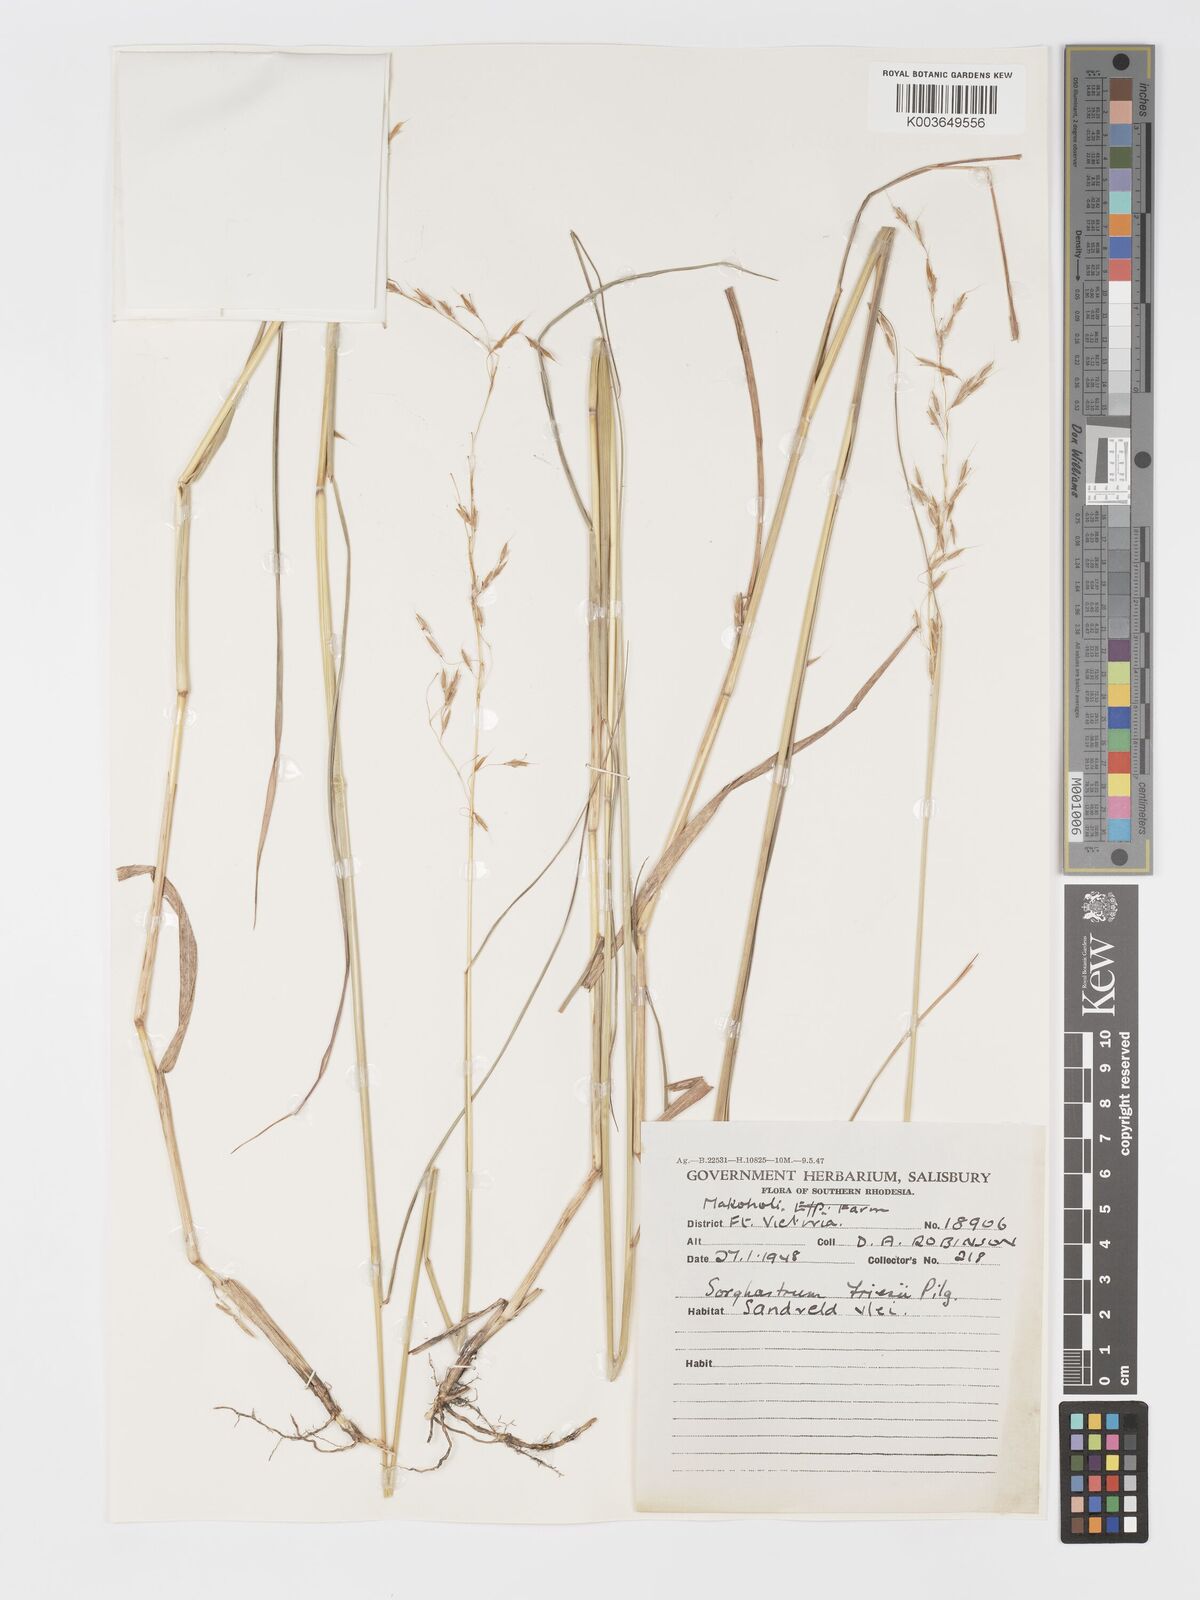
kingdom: Plantae
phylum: Tracheophyta
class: Liliopsida
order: Poales
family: Poaceae
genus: Sorghastrum
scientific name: Sorghastrum nudipes
